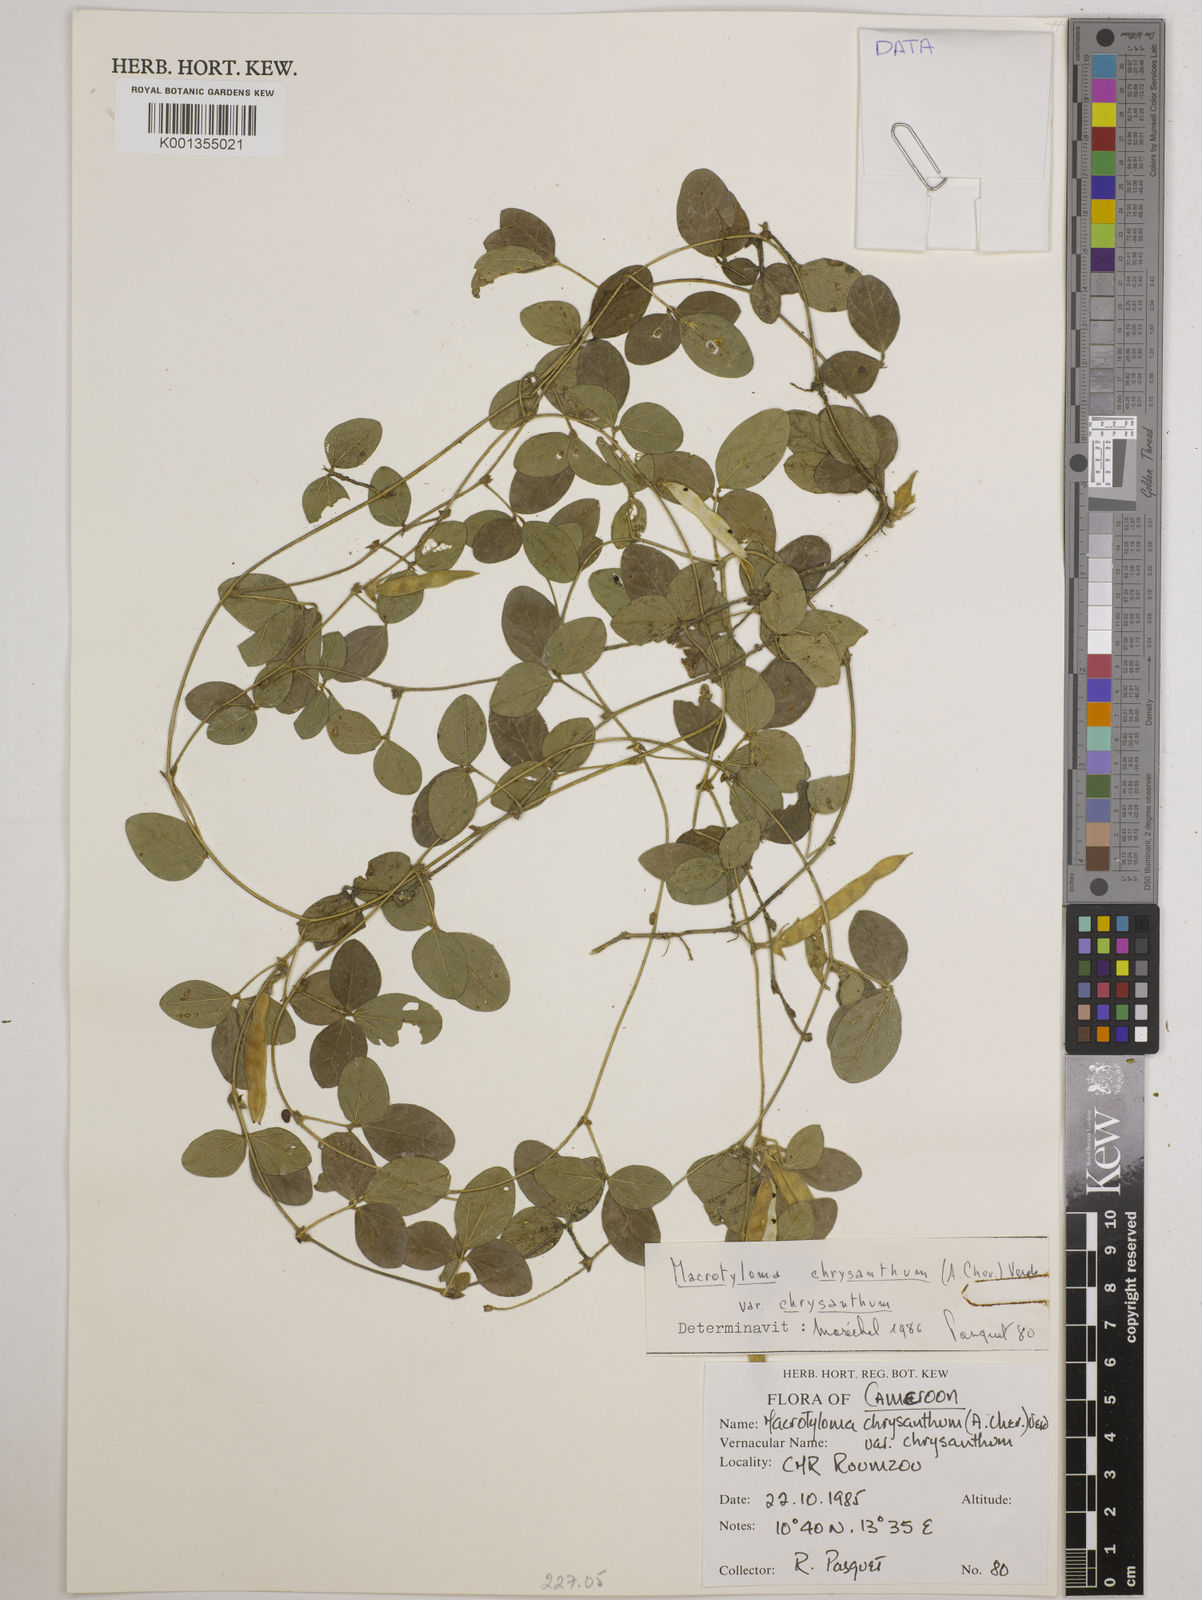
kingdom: Plantae
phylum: Tracheophyta
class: Magnoliopsida
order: Fabales
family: Fabaceae
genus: Macrotyloma
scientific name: Macrotyloma
